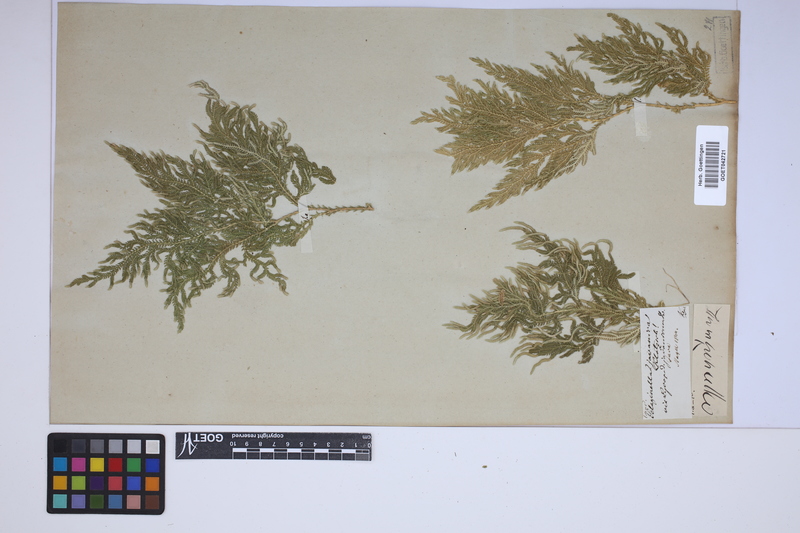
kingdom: Plantae
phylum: Tracheophyta
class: Lycopodiopsida
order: Selaginellales
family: Selaginellaceae
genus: Selaginella
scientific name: Selaginella ornata
